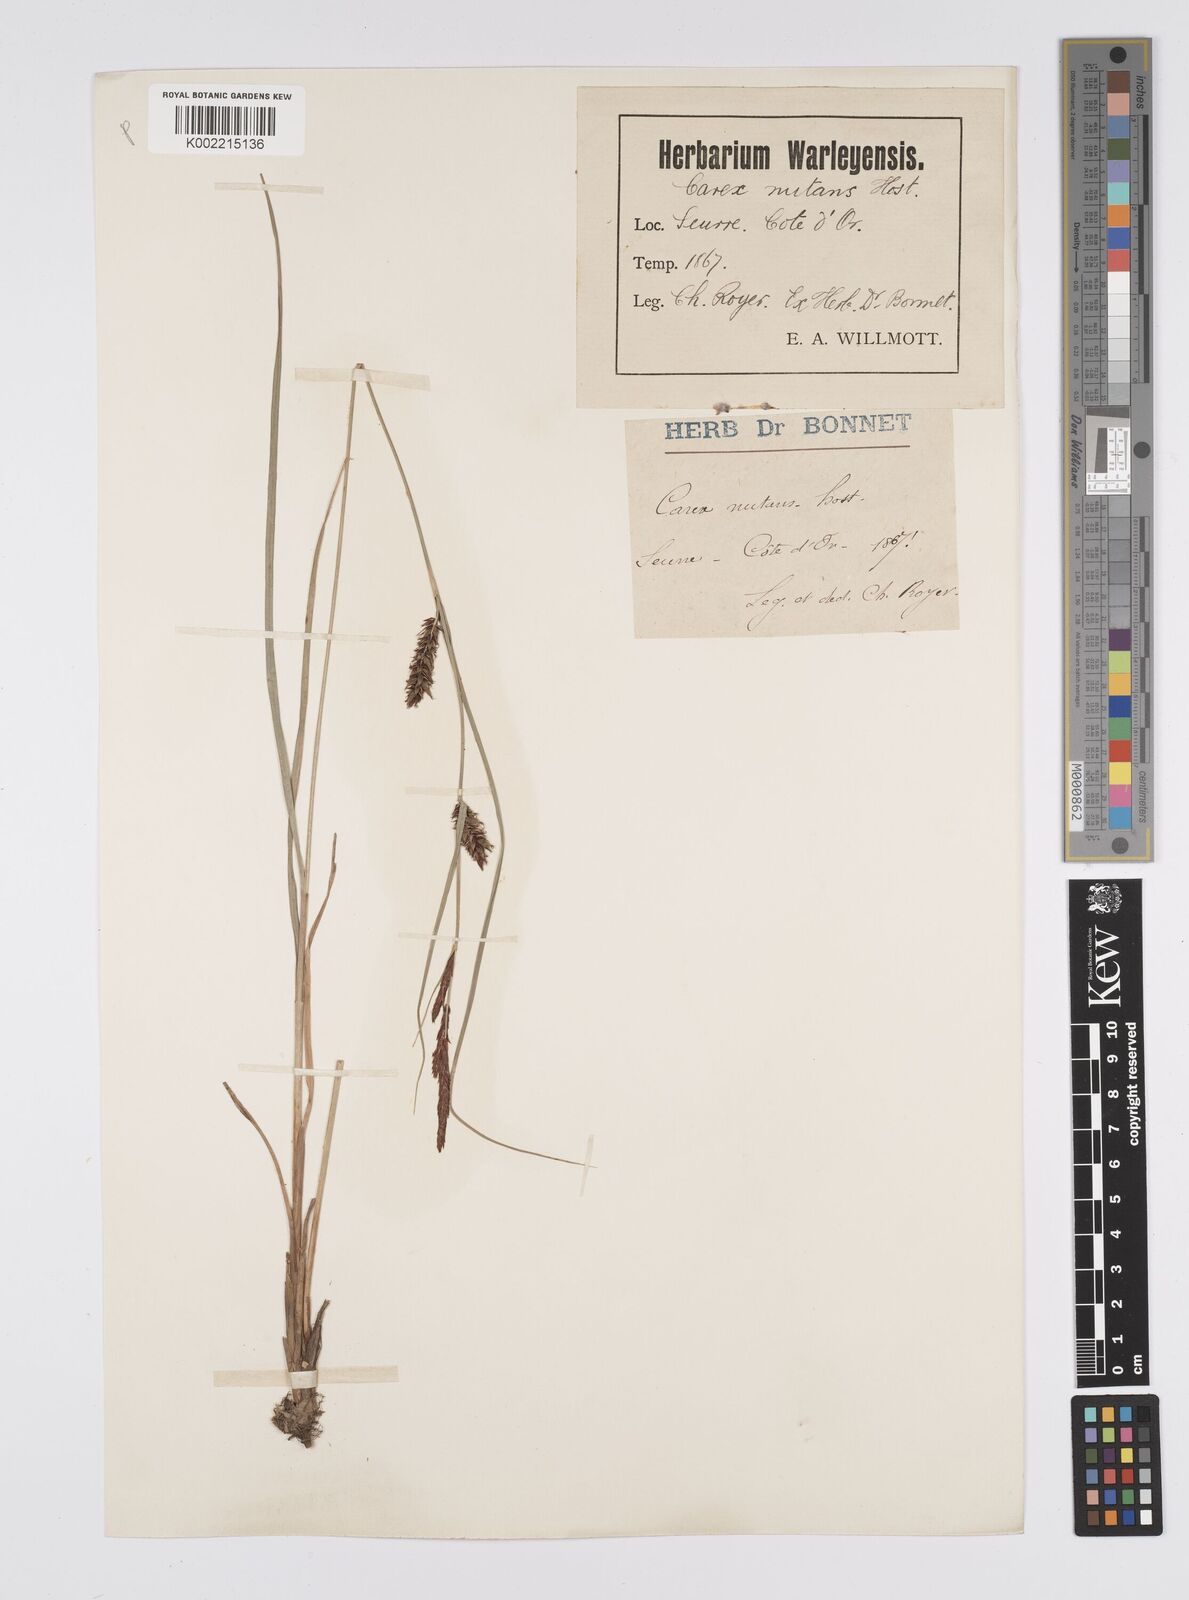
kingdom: Plantae
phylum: Tracheophyta
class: Liliopsida
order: Poales
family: Cyperaceae
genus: Carex
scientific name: Carex melanostachya
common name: Black-spiked sedge
